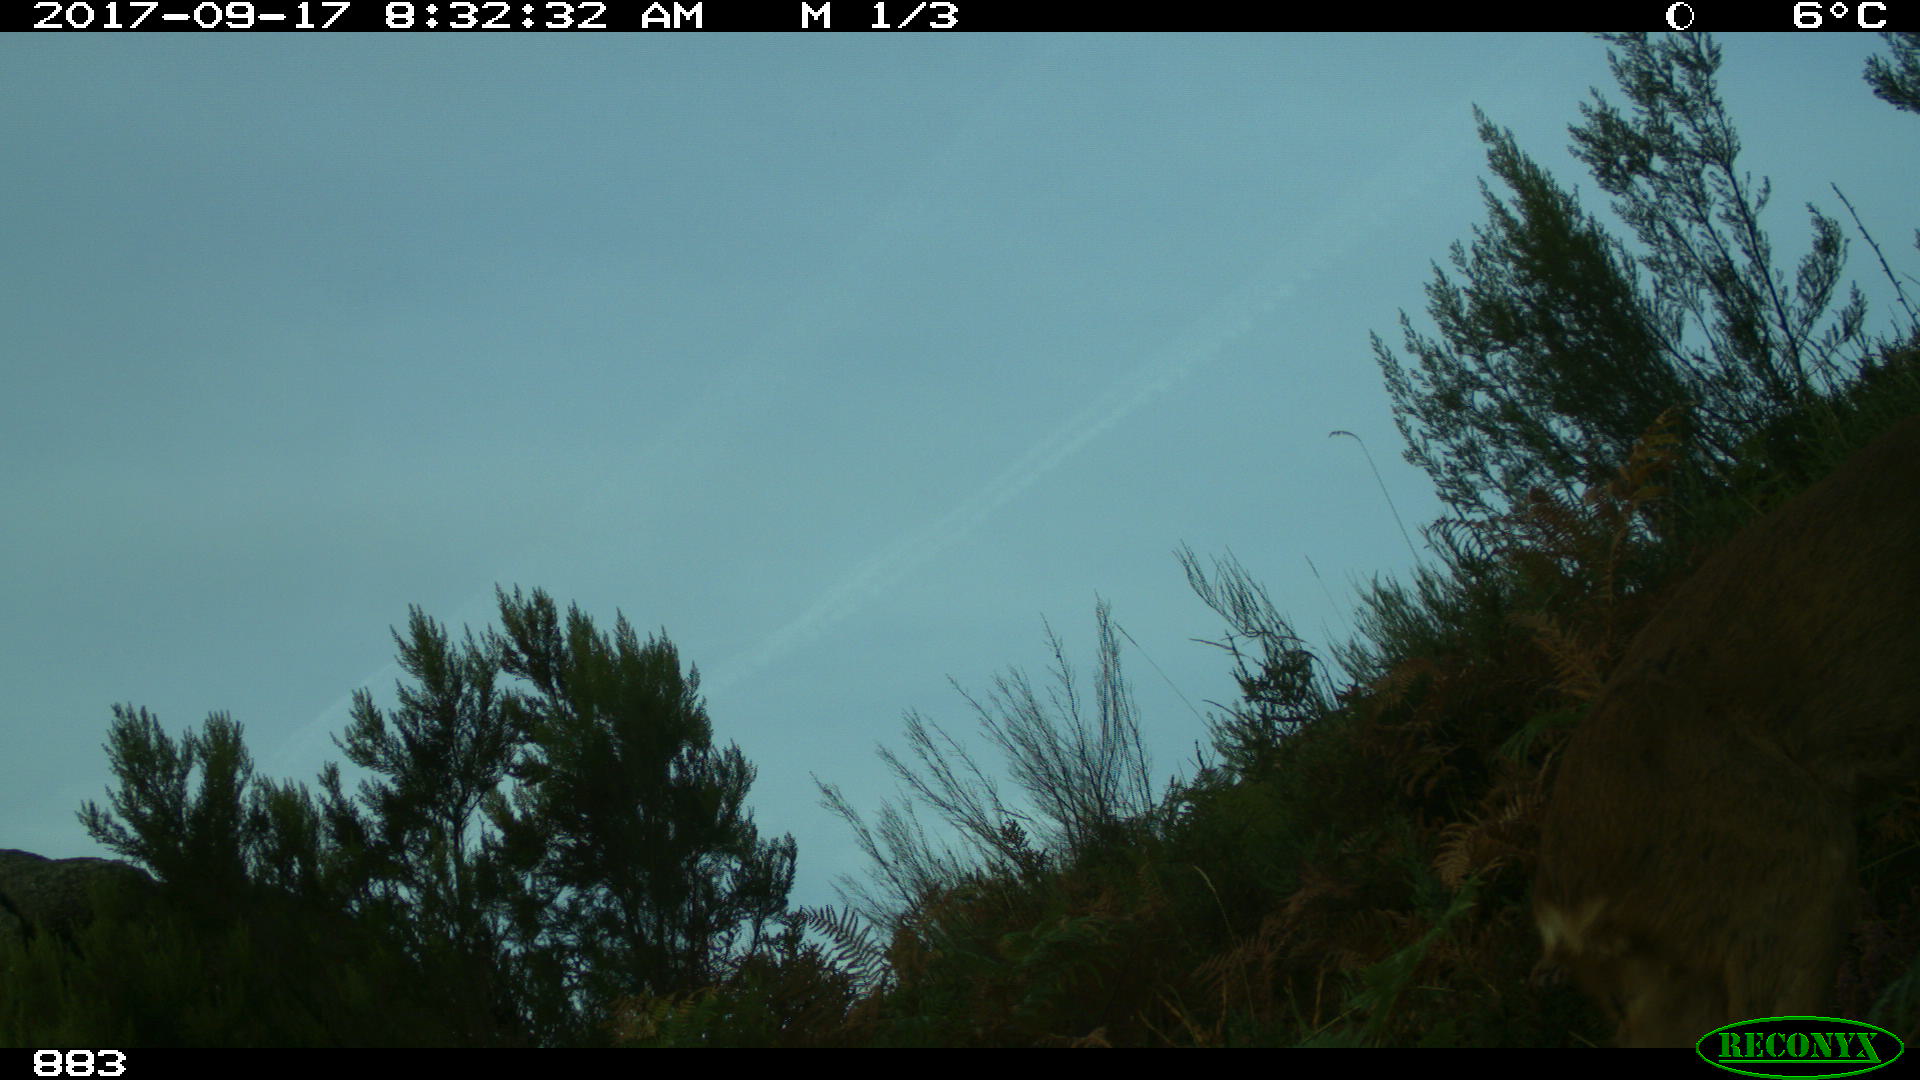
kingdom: Animalia
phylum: Chordata
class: Mammalia
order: Artiodactyla
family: Cervidae
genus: Capreolus
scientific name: Capreolus capreolus
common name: Western roe deer
